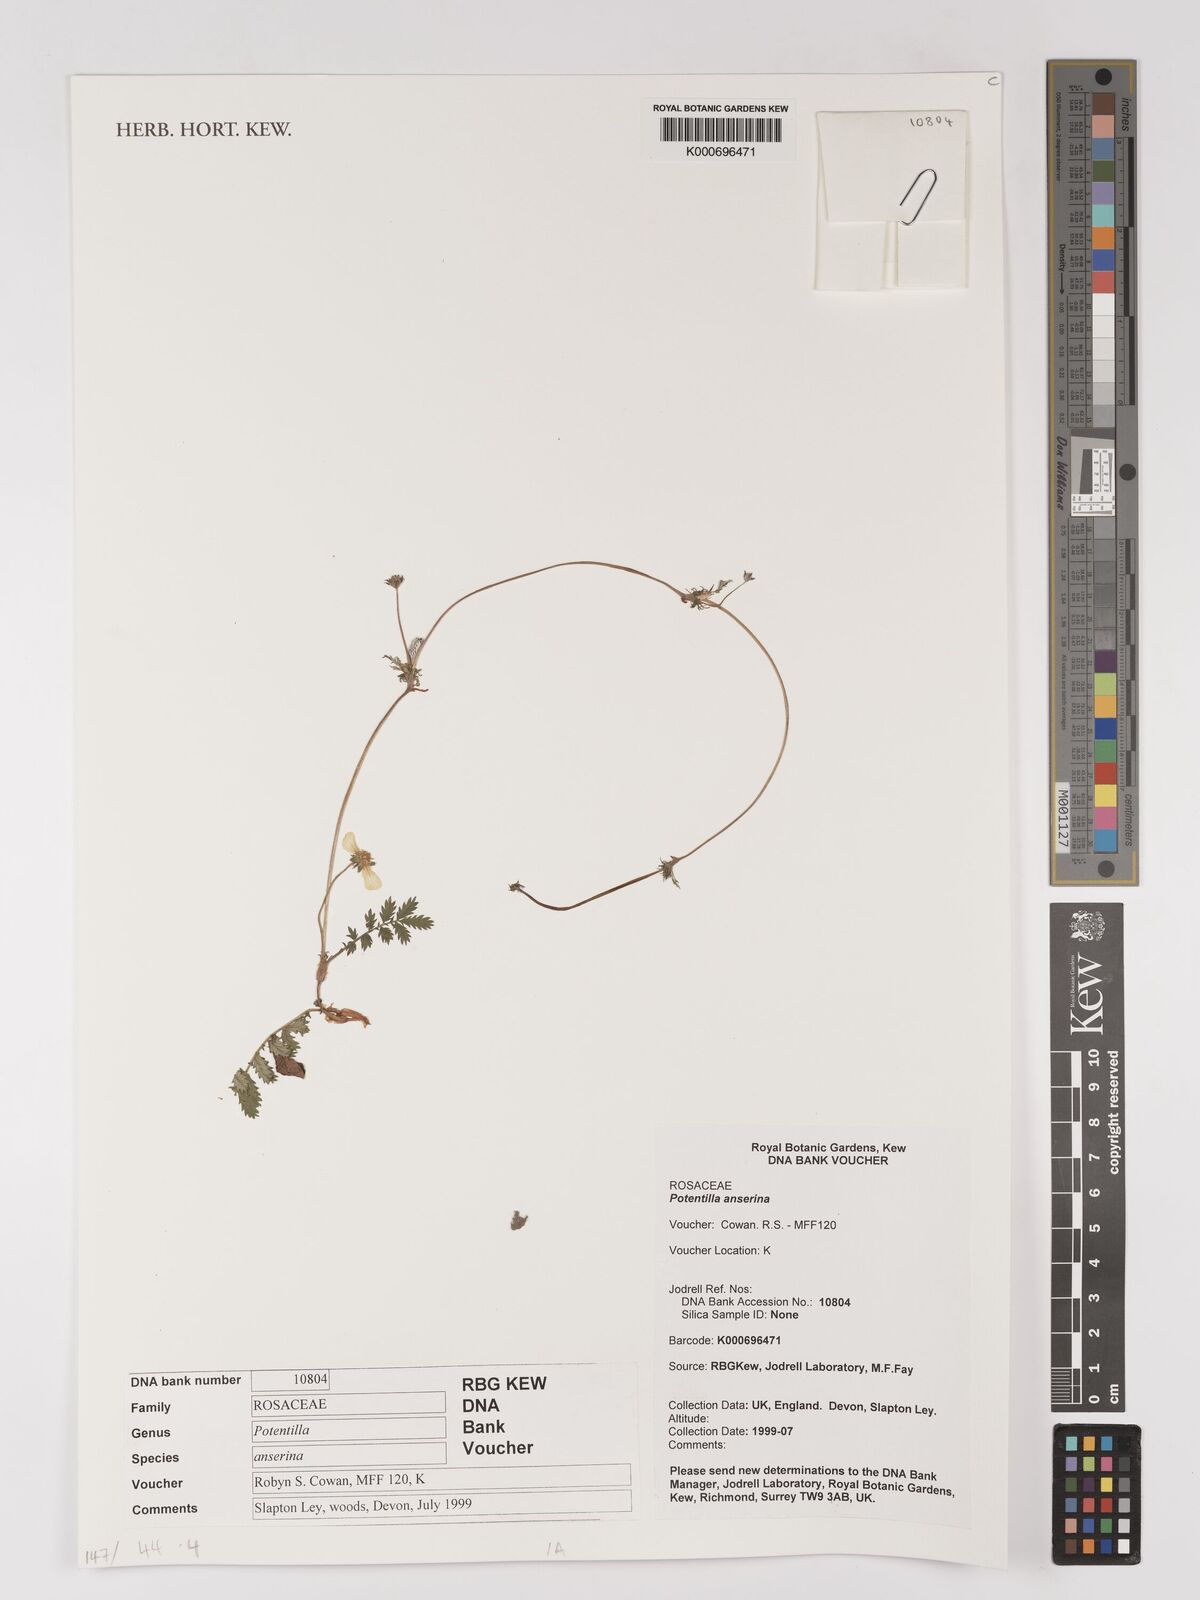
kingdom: Plantae
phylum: Tracheophyta
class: Magnoliopsida
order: Rosales
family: Rosaceae
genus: Argentina
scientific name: Argentina anserina
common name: Common silverweed
